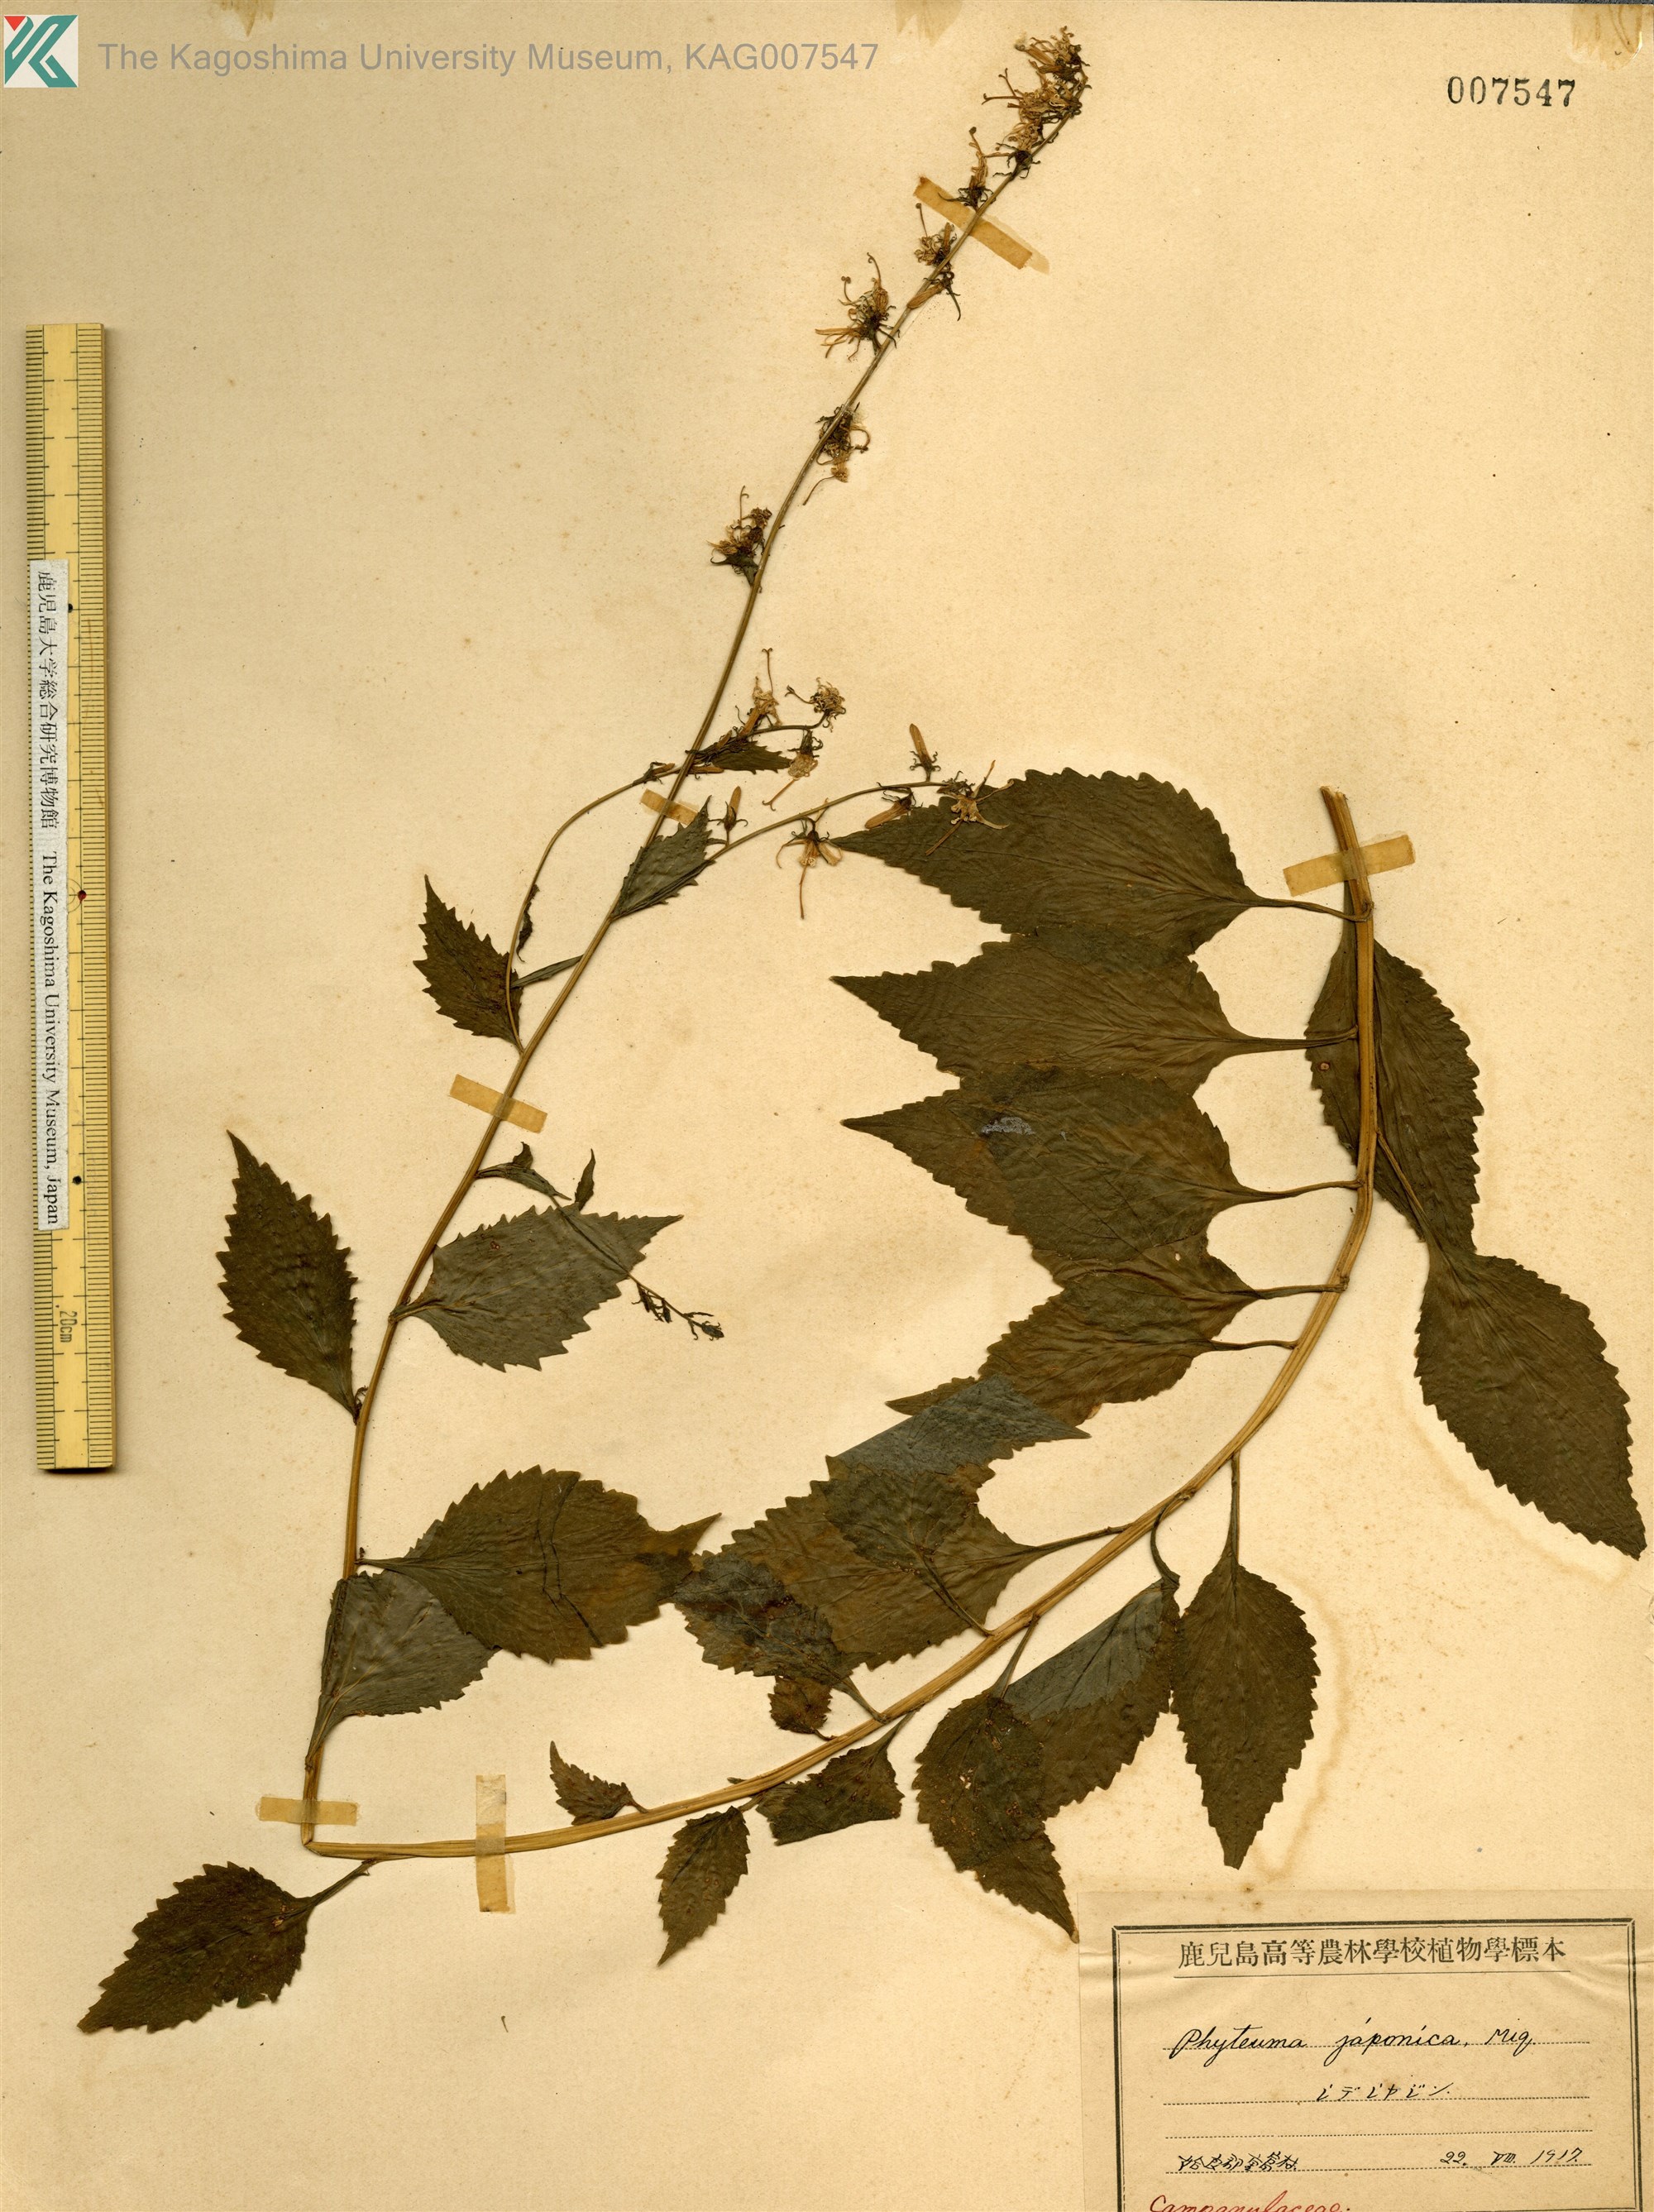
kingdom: Plantae
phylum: Tracheophyta
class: Magnoliopsida
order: Asterales
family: Campanulaceae
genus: Asyneuma
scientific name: Asyneuma japonicum
